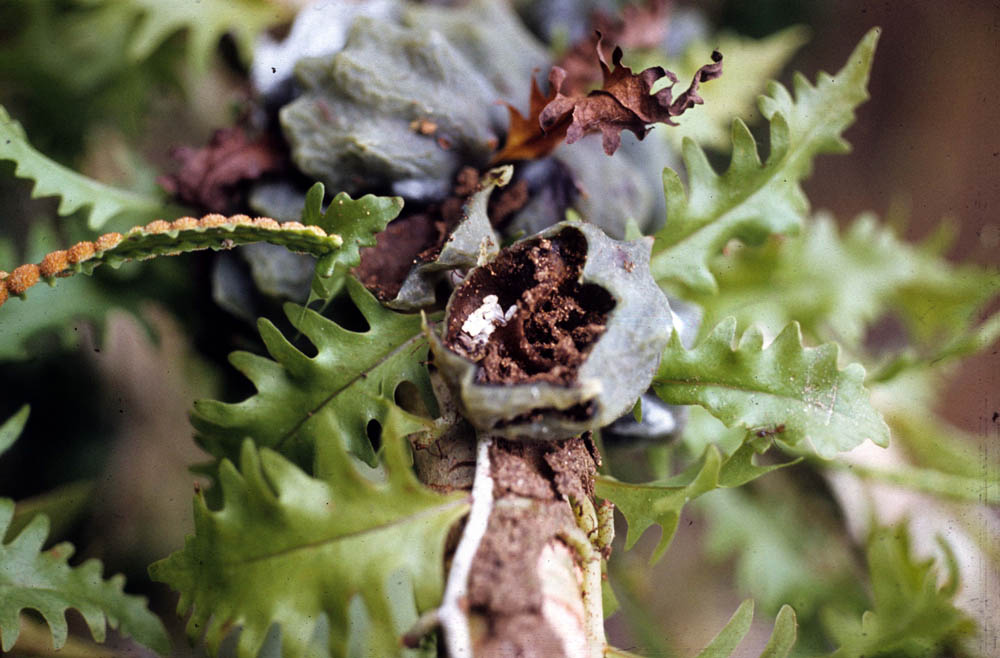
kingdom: Plantae
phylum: Tracheophyta
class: Polypodiopsida
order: Polypodiales
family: Polypodiaceae
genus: Microgramma
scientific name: Microgramma bifrons
